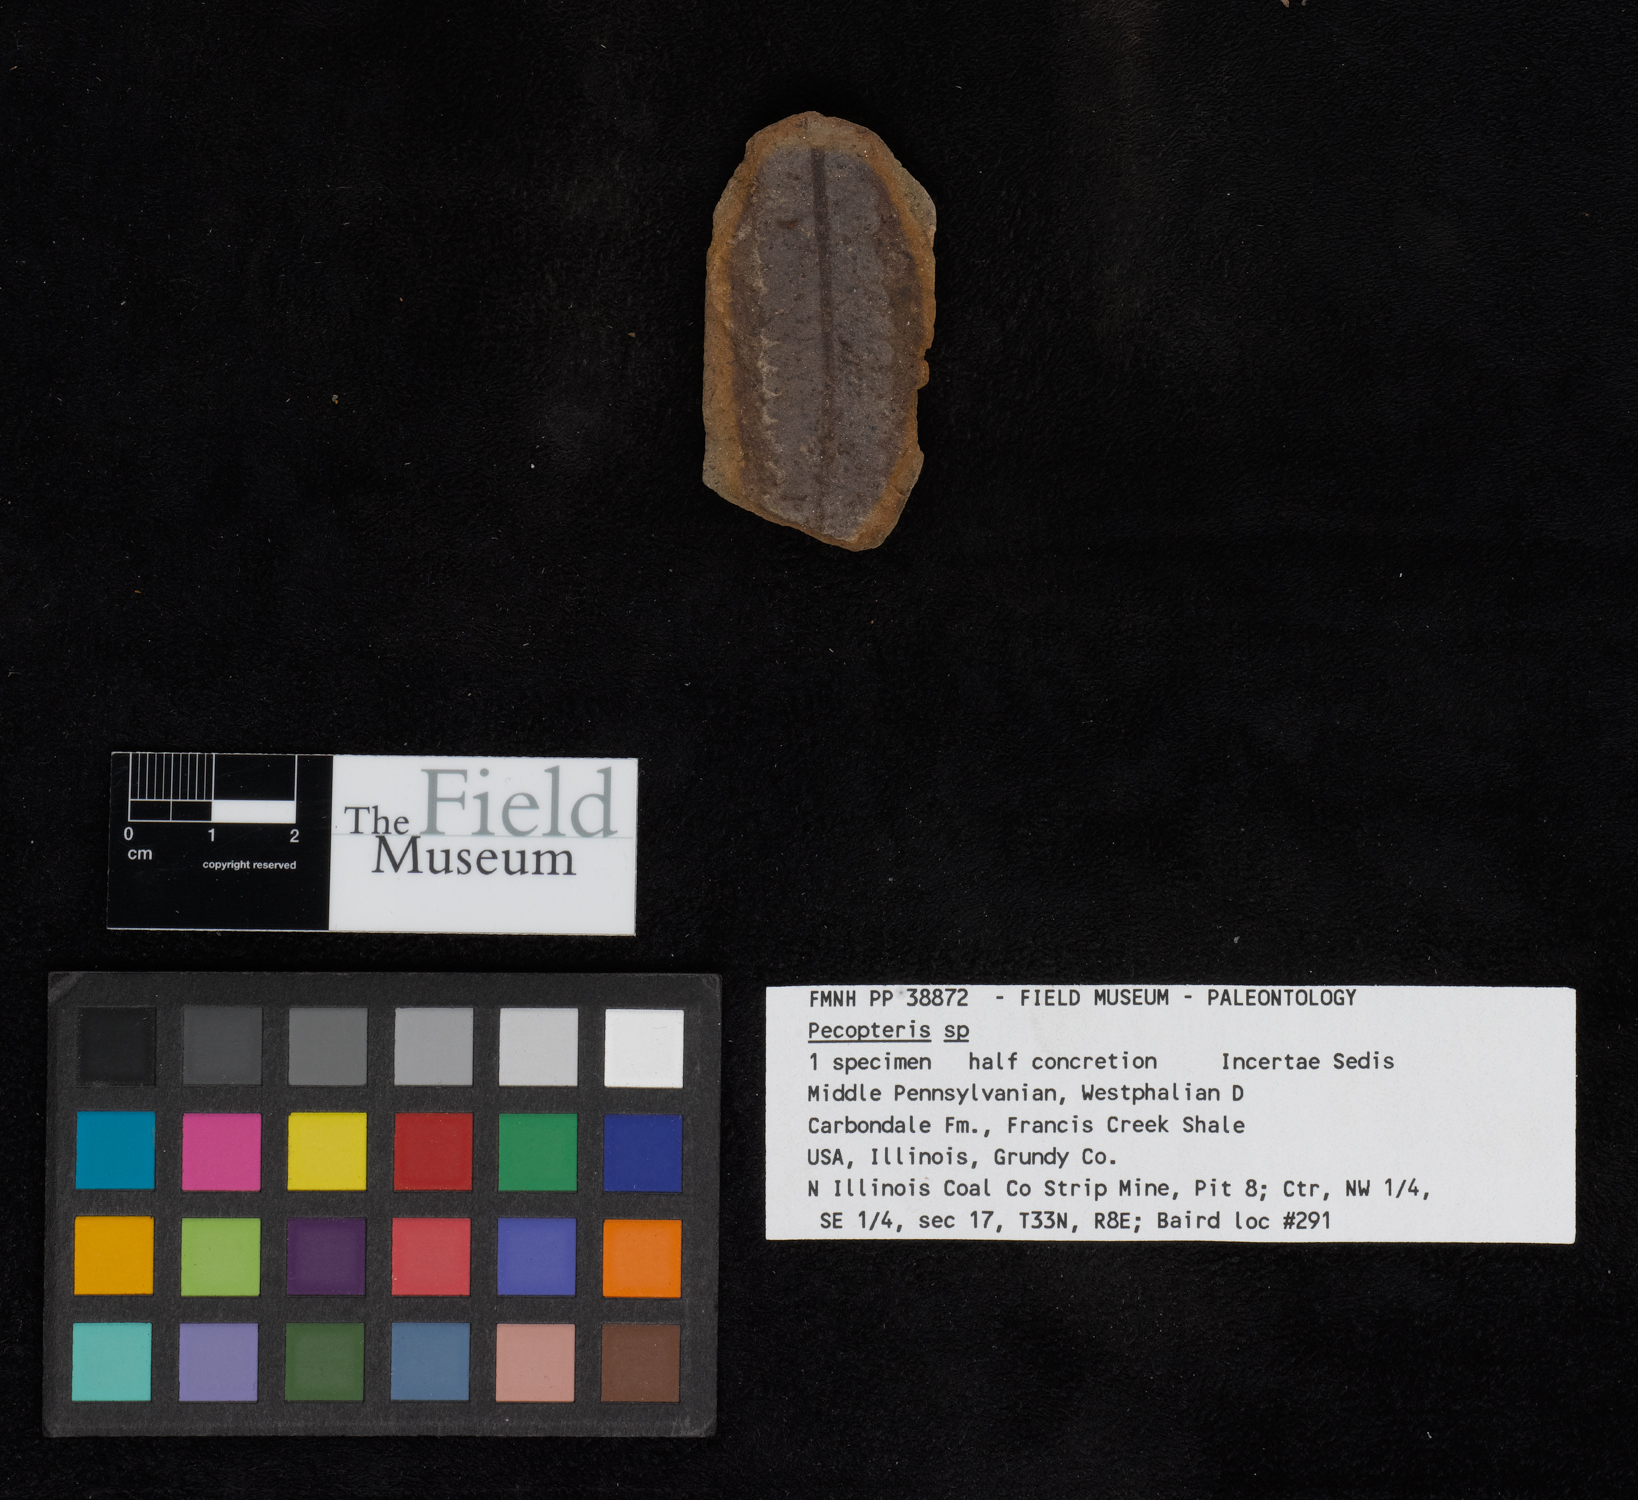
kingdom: Plantae
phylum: Tracheophyta
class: Polypodiopsida
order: Marattiales
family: Asterothecaceae
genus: Pecopteris
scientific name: Pecopteris
